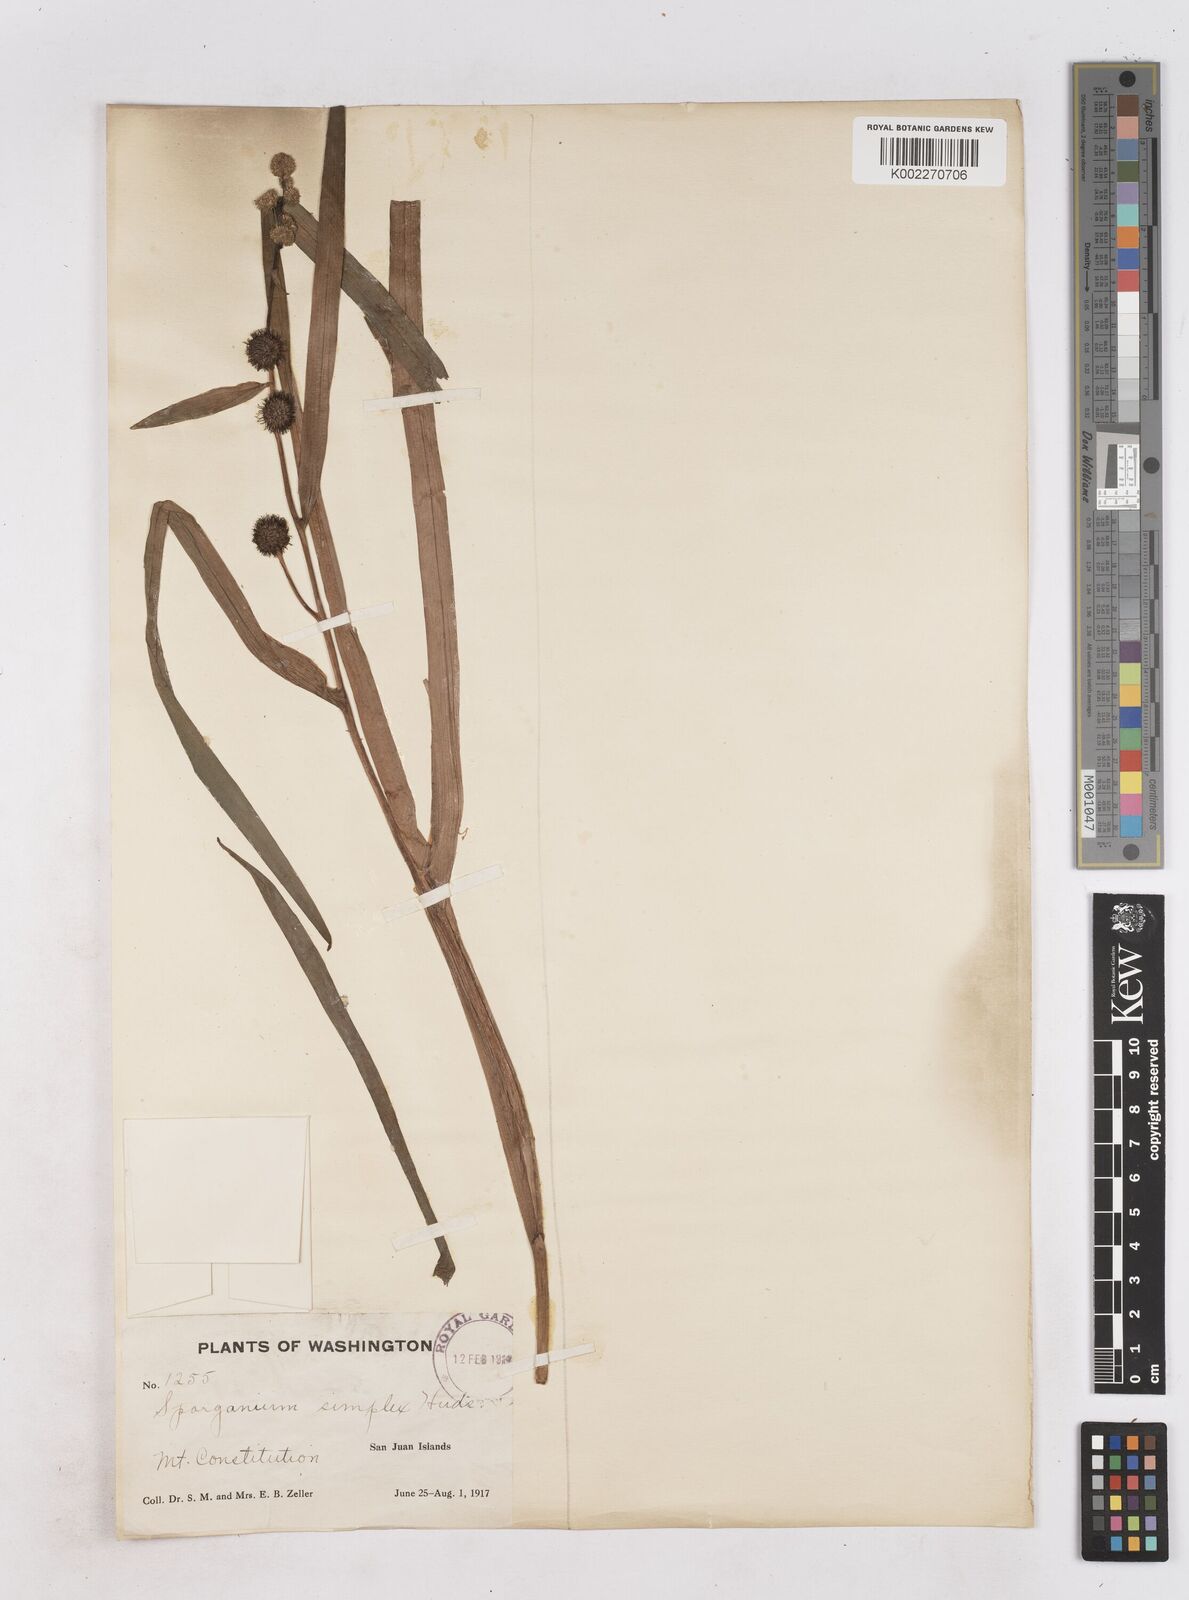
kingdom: Plantae
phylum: Tracheophyta
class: Liliopsida
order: Poales
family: Typhaceae
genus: Sparganium
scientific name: Sparganium emersum
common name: Unbranched bur-reed
